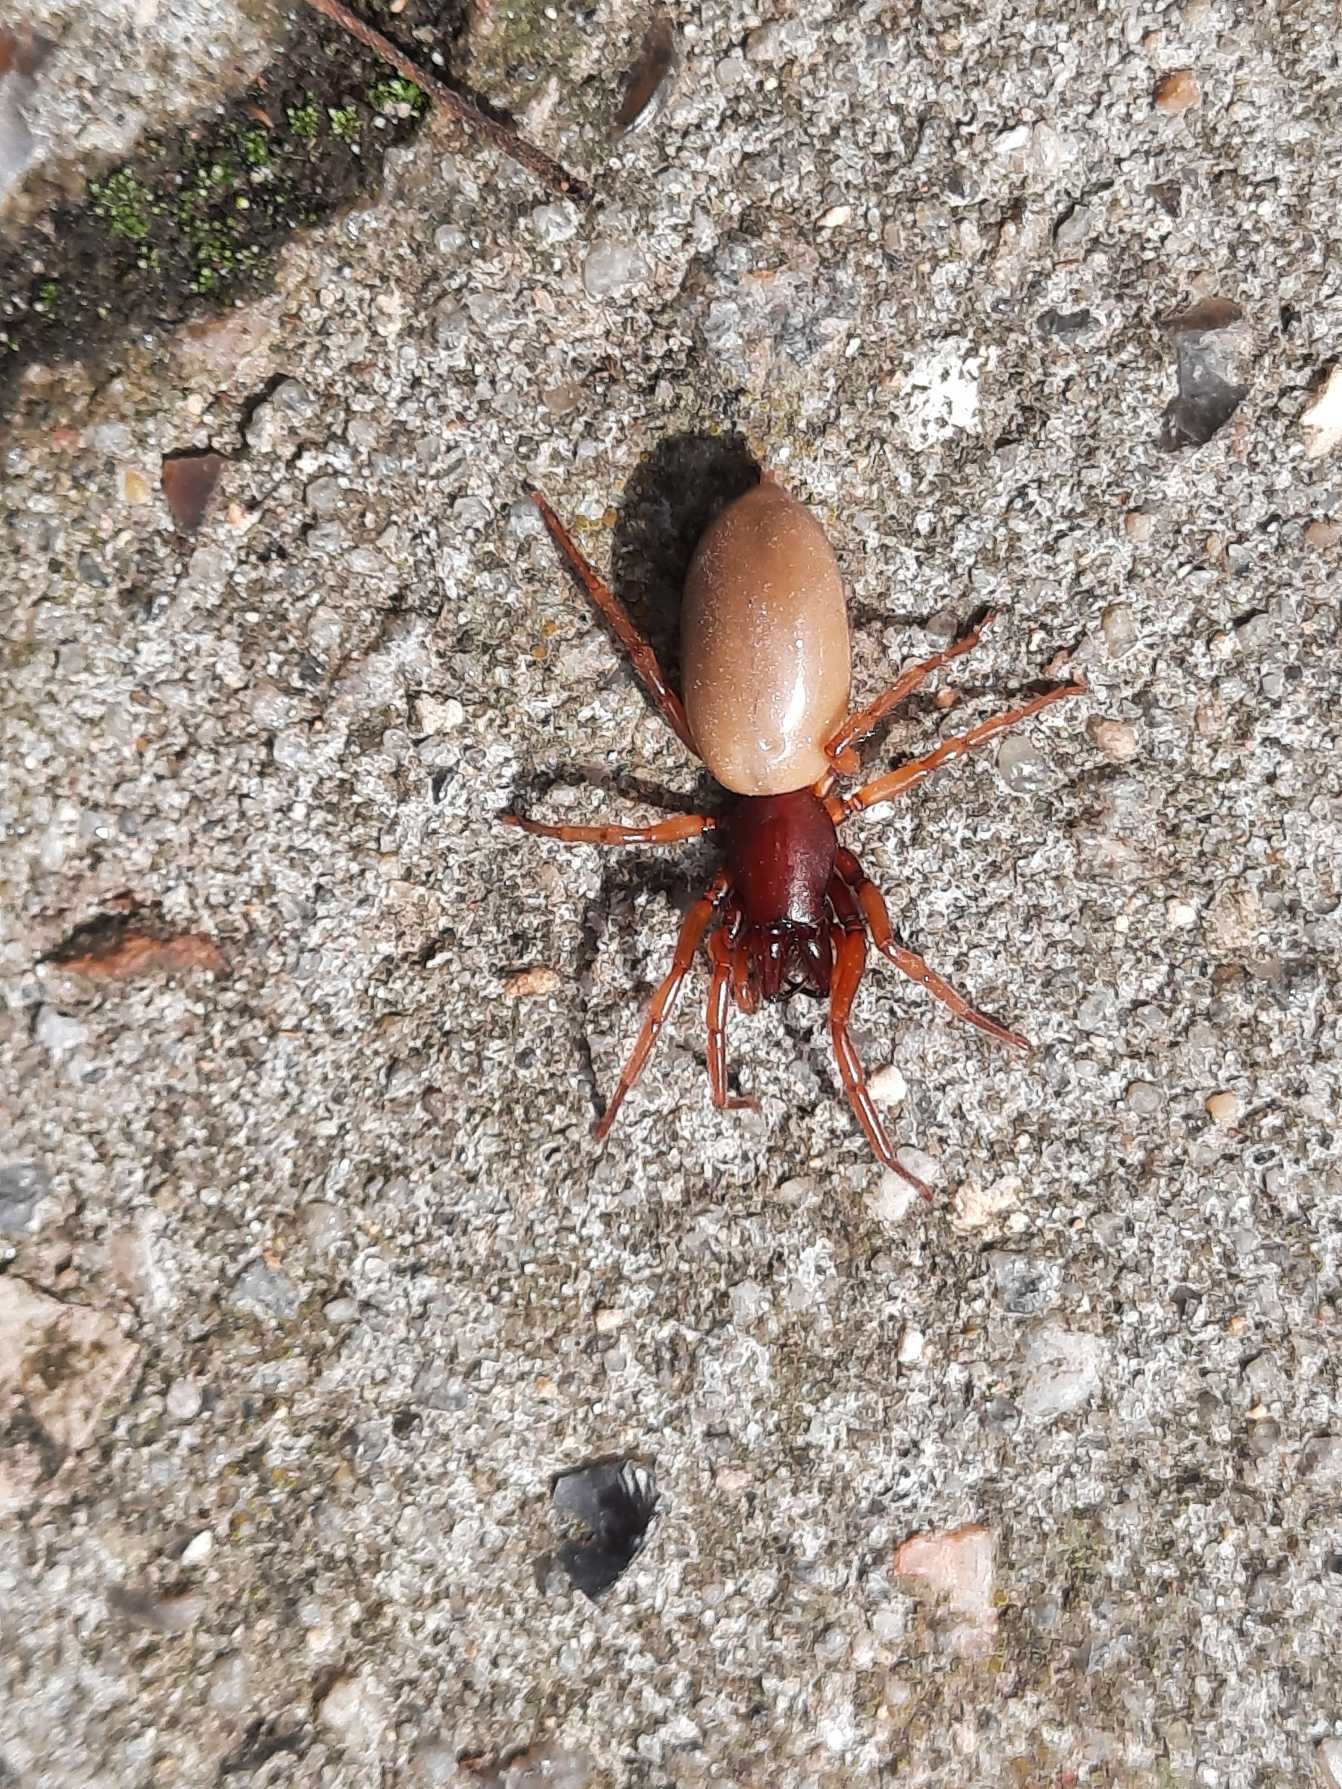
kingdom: Animalia
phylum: Arthropoda
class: Arachnida
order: Araneae
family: Dysderidae
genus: Dysdera
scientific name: Dysdera crocata
